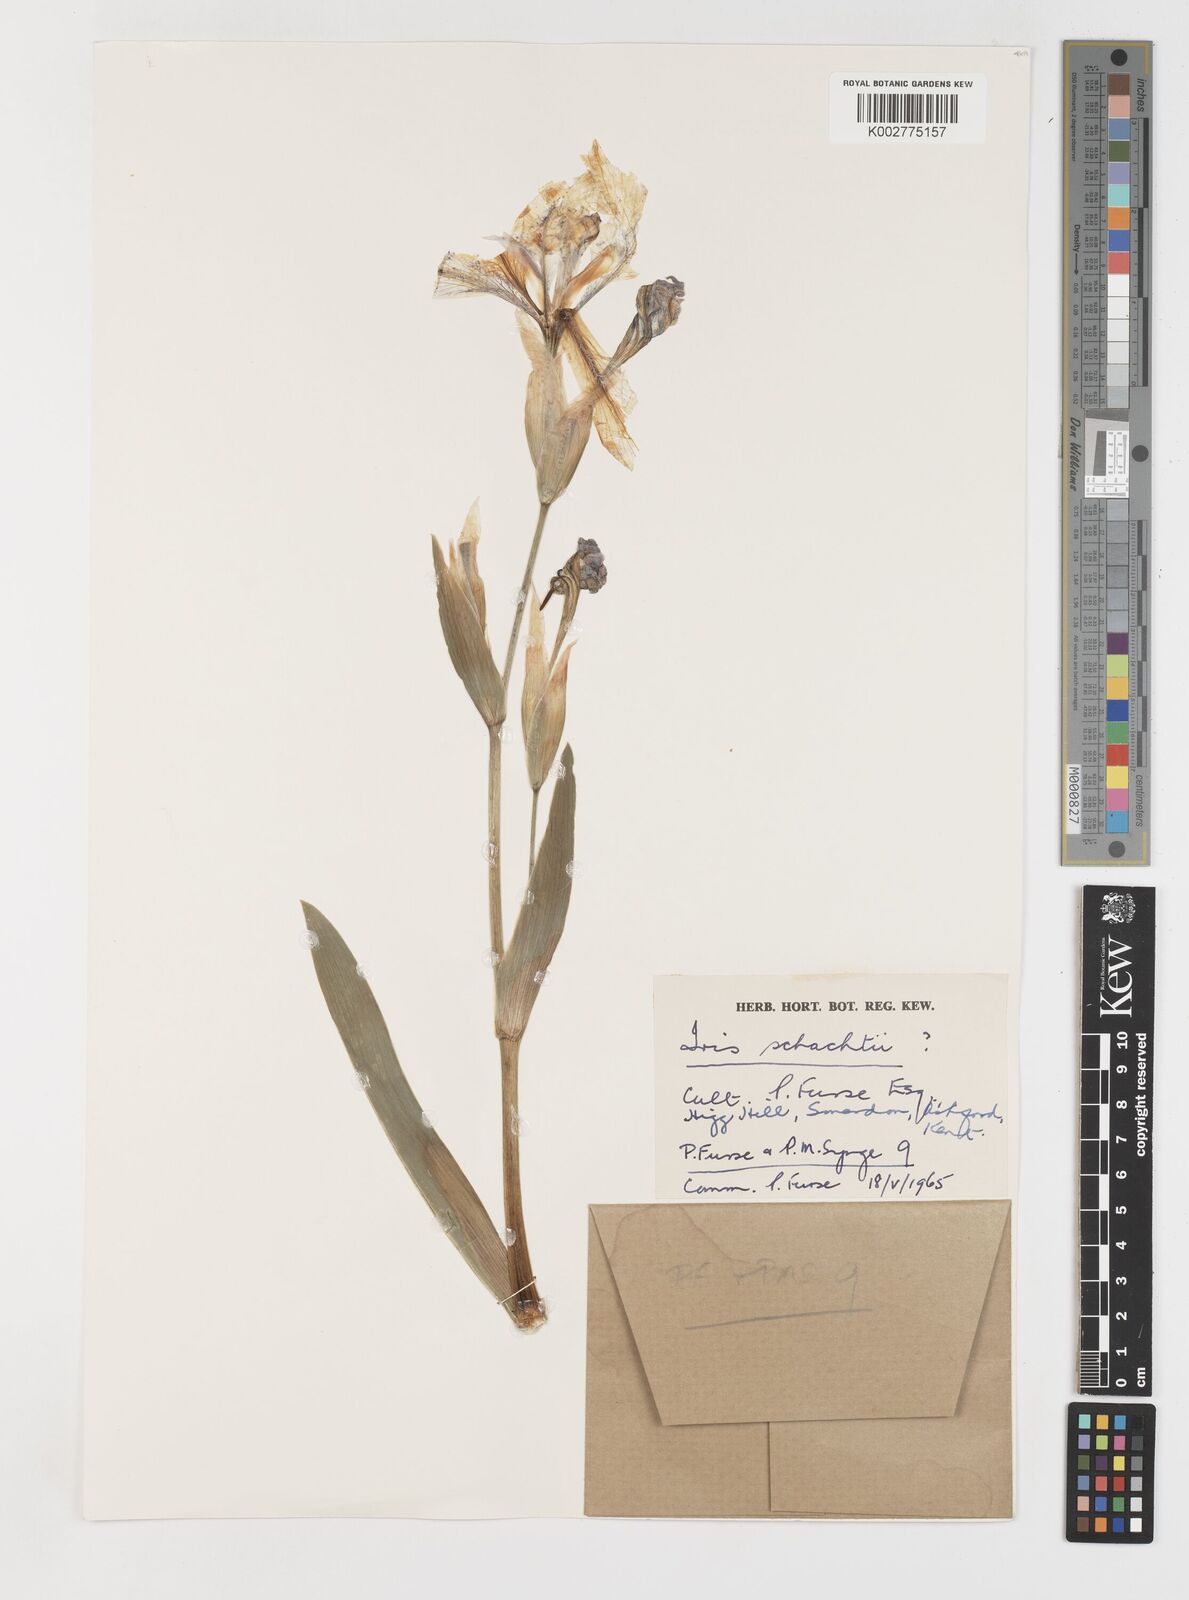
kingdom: Plantae
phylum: Tracheophyta
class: Liliopsida
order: Asparagales
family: Iridaceae
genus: Iris
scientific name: Iris schachtii
